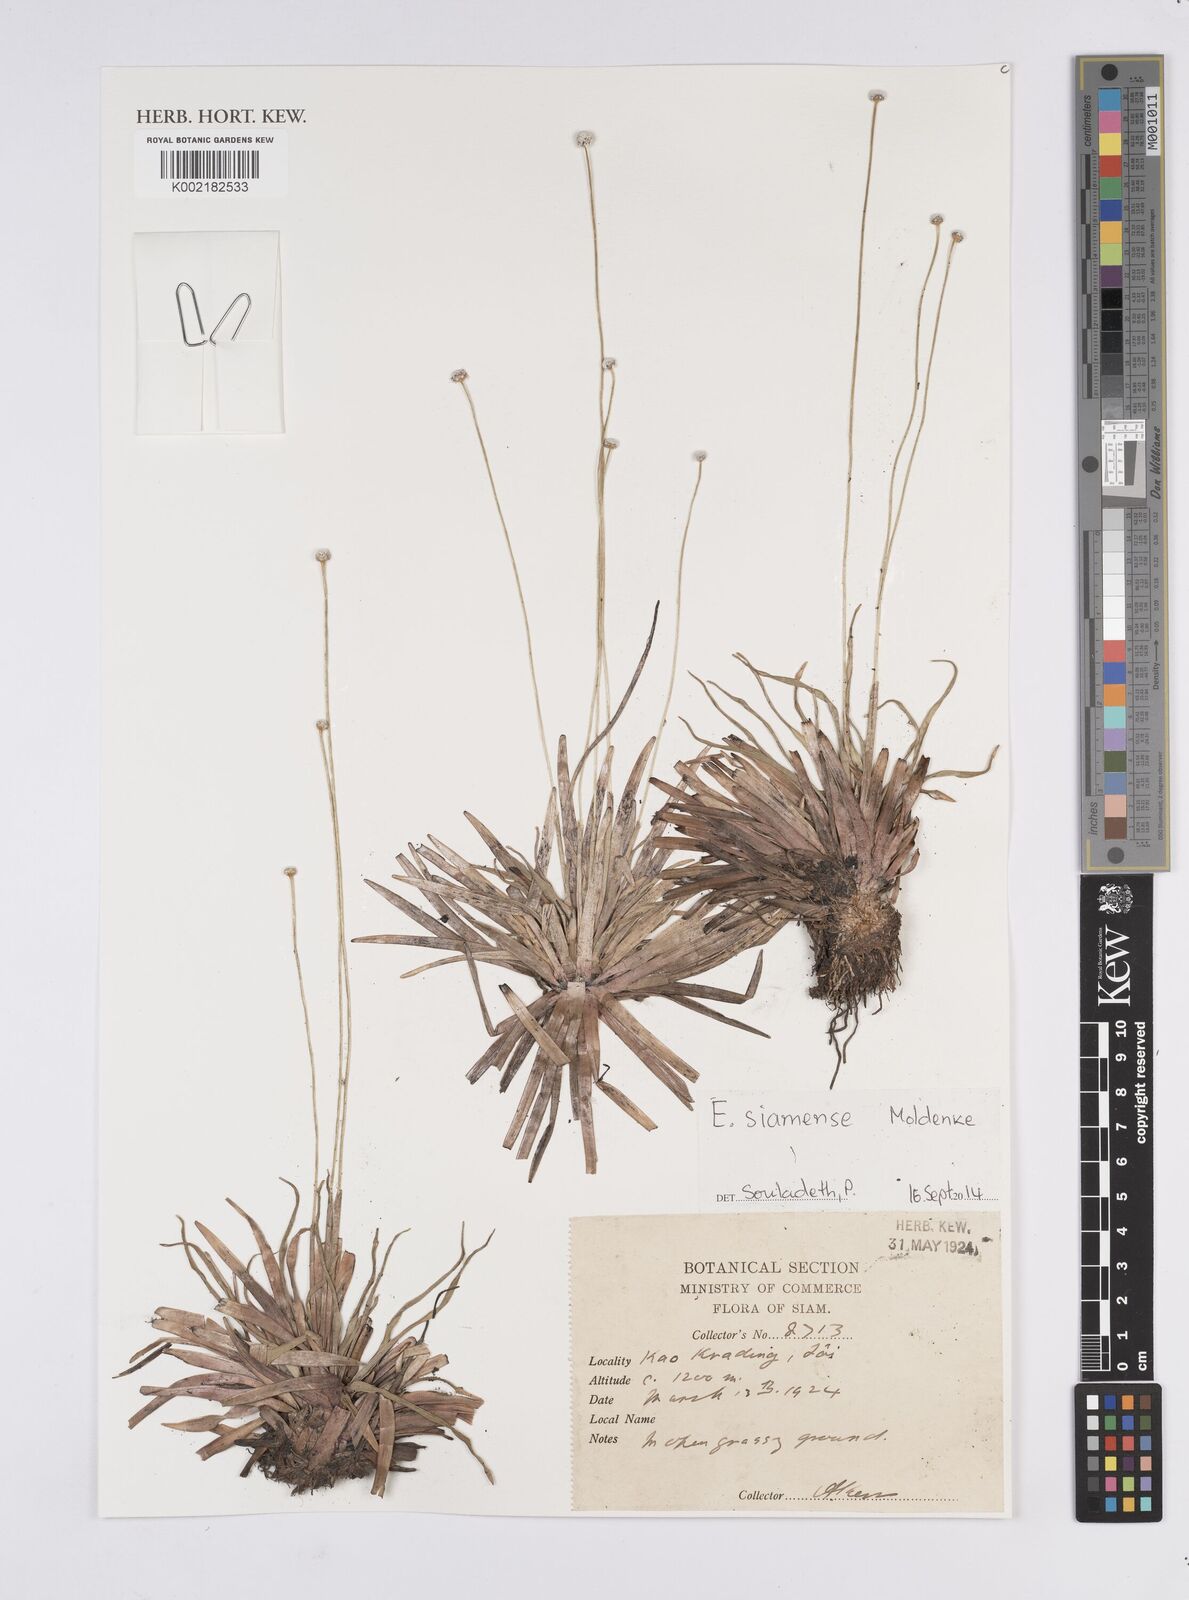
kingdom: Plantae
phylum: Tracheophyta
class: Liliopsida
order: Poales
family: Eriocaulaceae
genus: Eriocaulon
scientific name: Eriocaulon siamense
